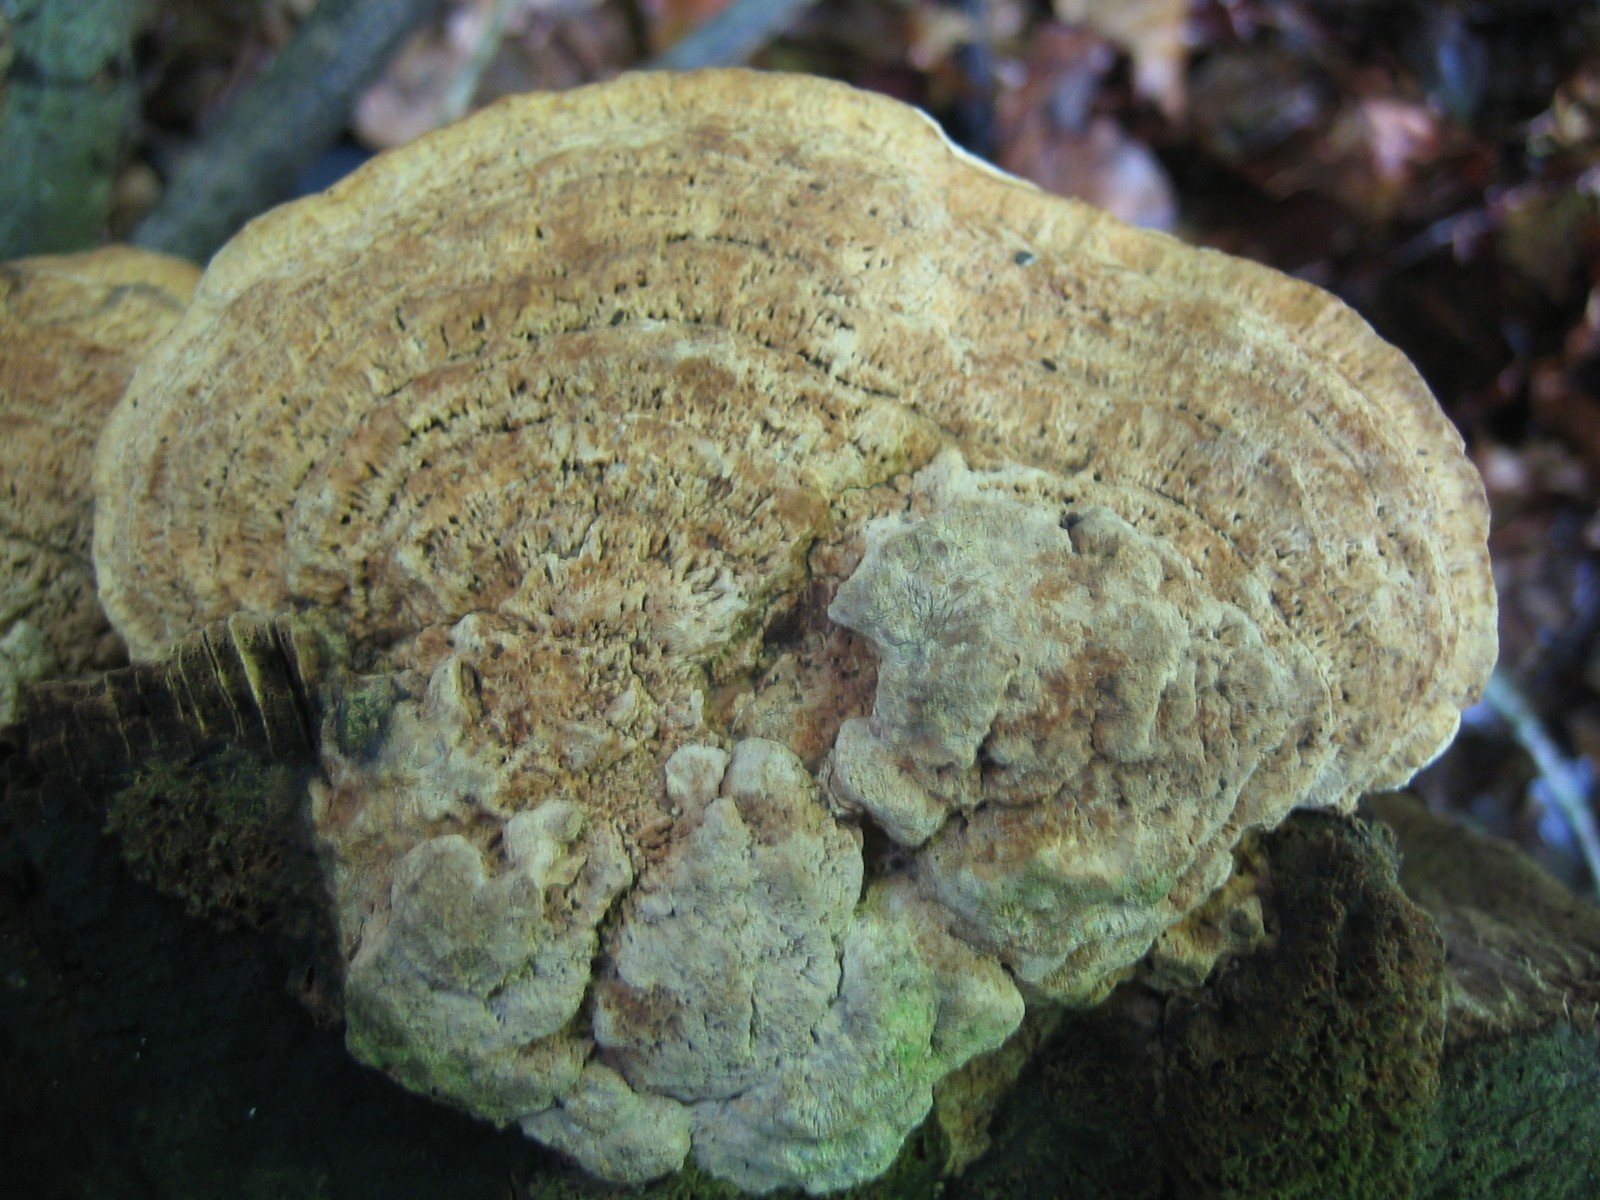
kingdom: Fungi
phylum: Basidiomycota
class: Agaricomycetes
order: Polyporales
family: Fomitopsidaceae
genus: Daedalea
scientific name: Daedalea quercina
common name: ege-labyrintsvamp
